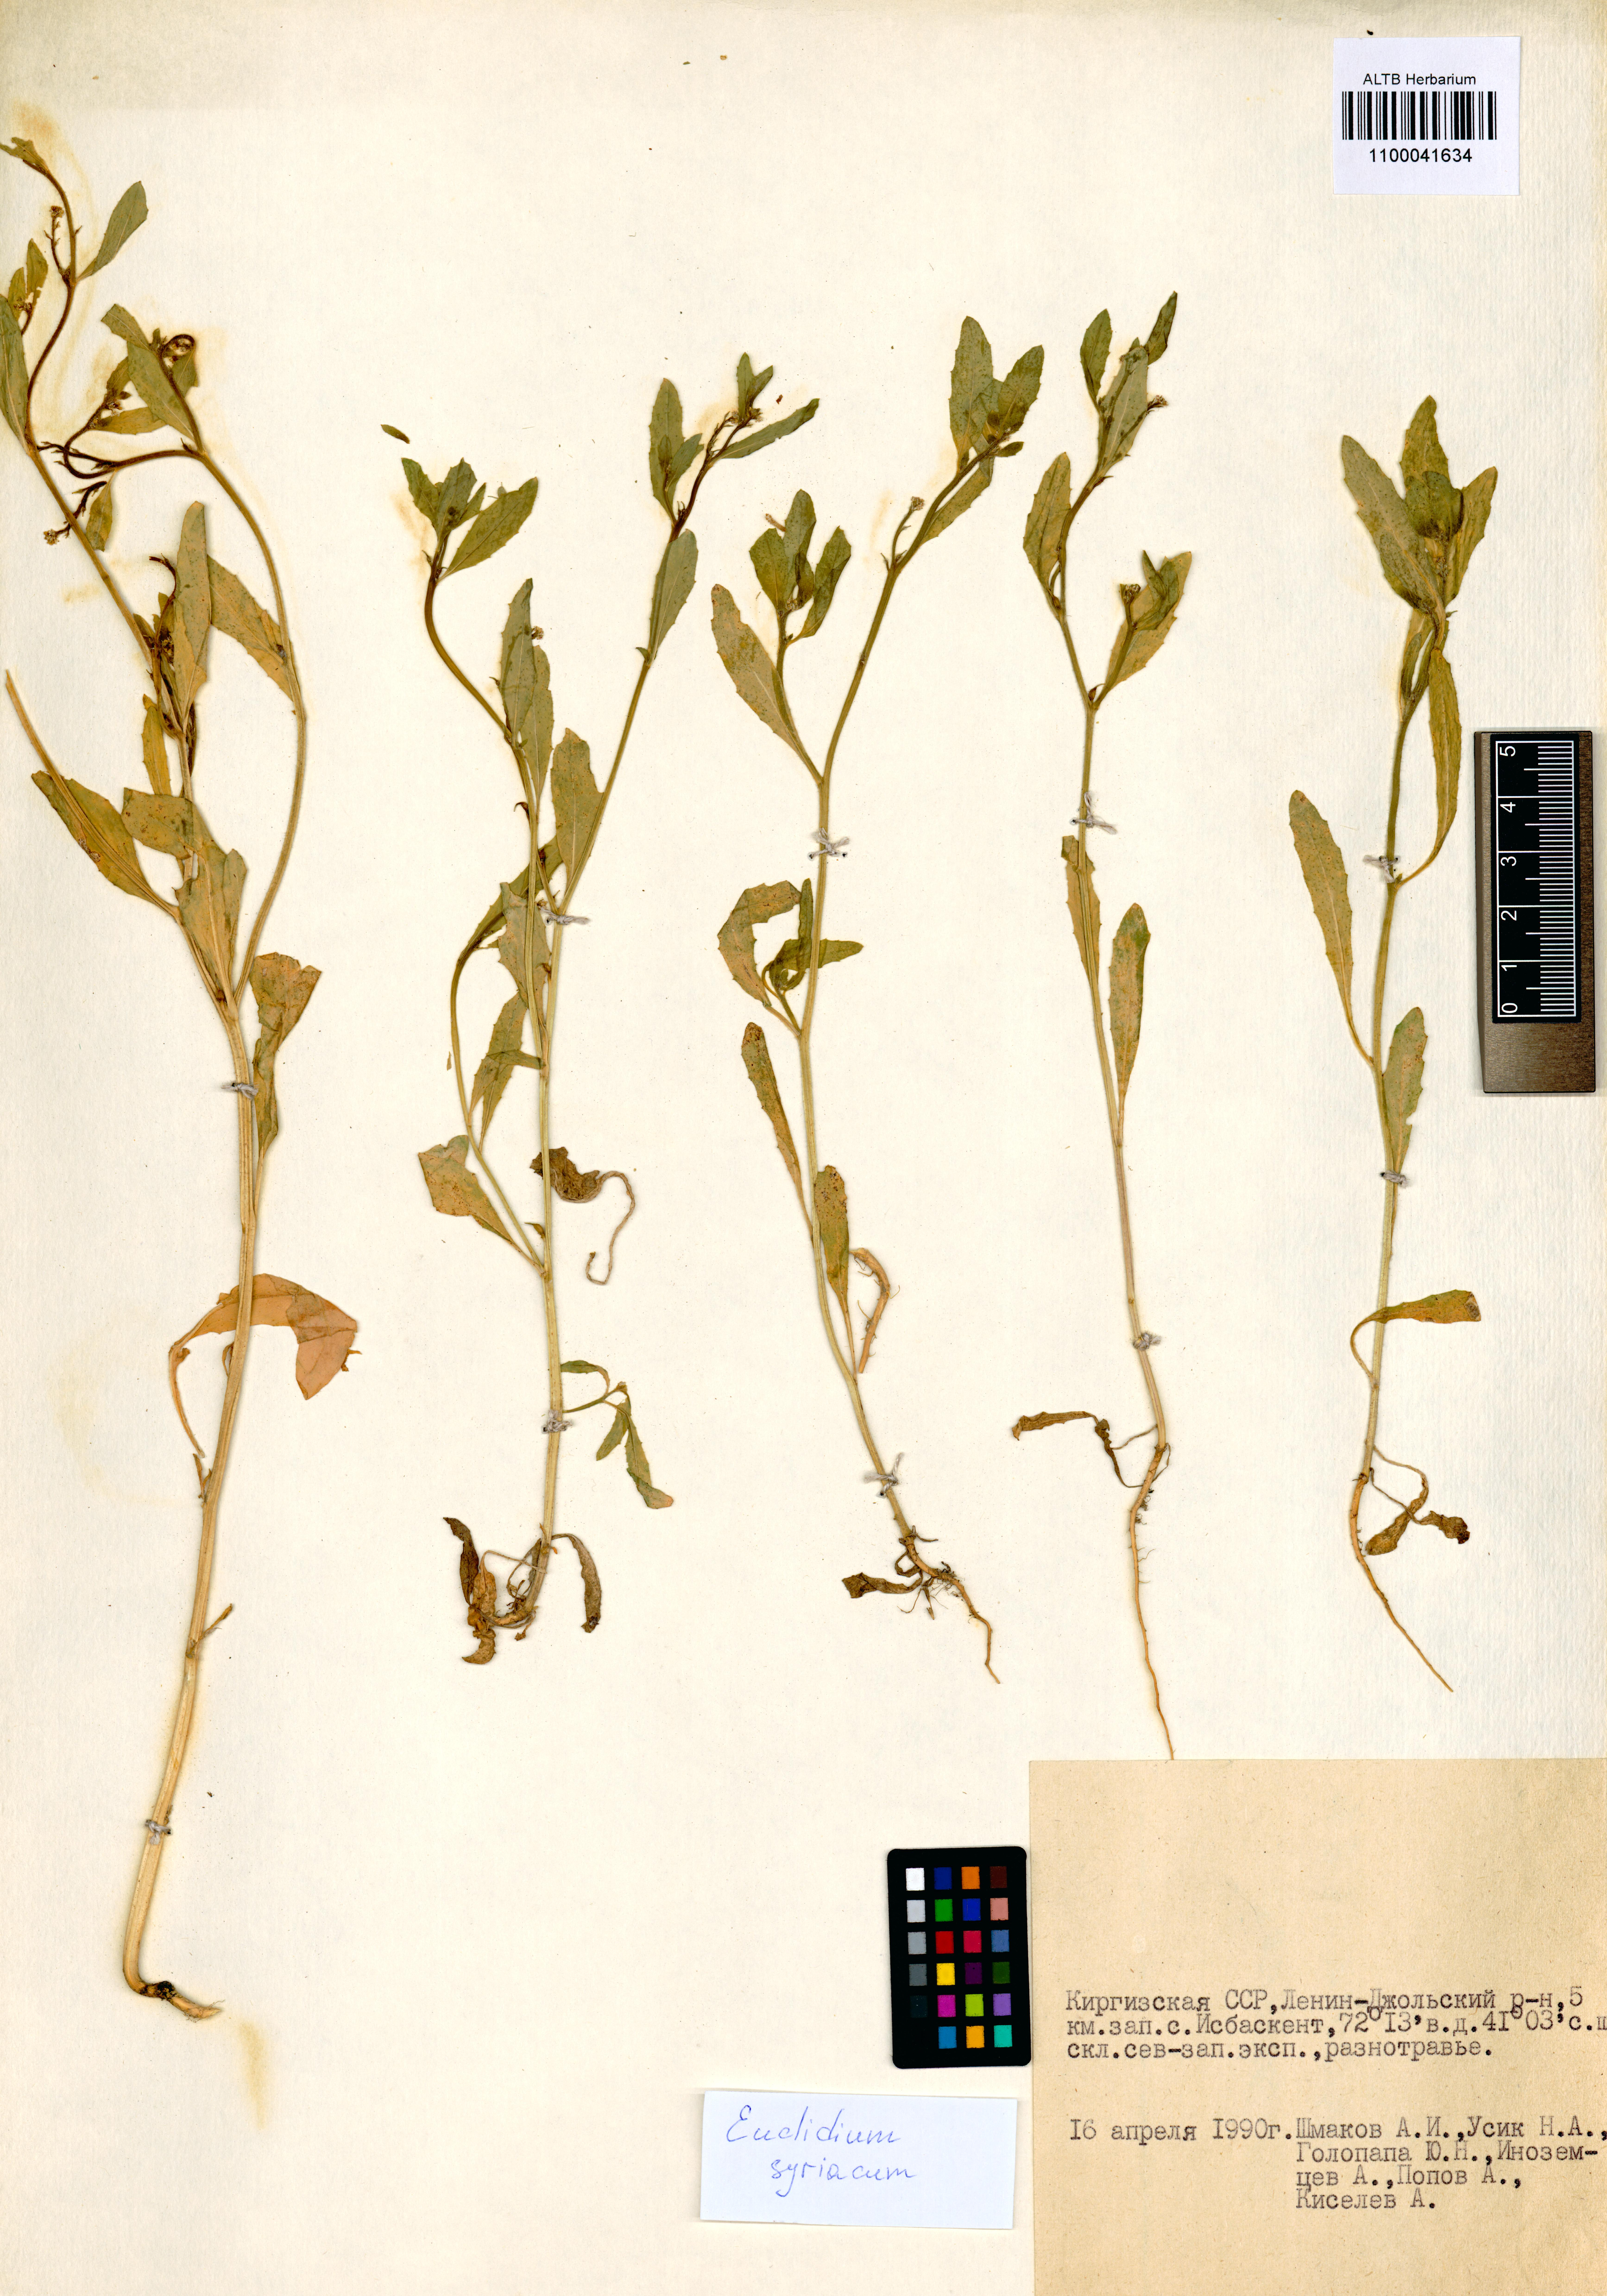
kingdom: Plantae
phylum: Tracheophyta
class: Magnoliopsida
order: Brassicales
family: Brassicaceae
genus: Euclidium
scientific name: Euclidium syriacum
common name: Syrian mustard
